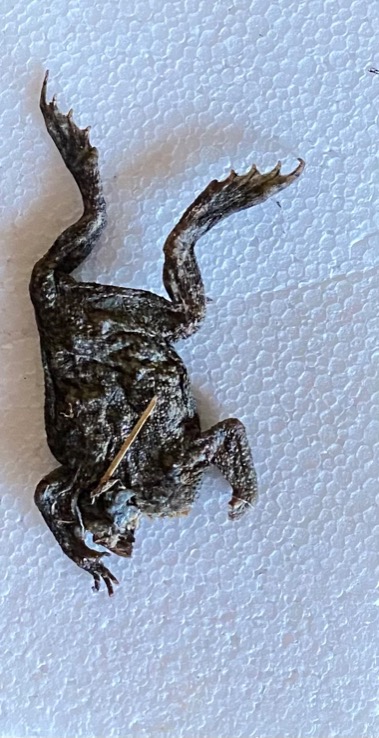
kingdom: Animalia
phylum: Chordata
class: Amphibia
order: Anura
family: Bufonidae
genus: Bufo
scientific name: Bufo bufo
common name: Skrubtudse
